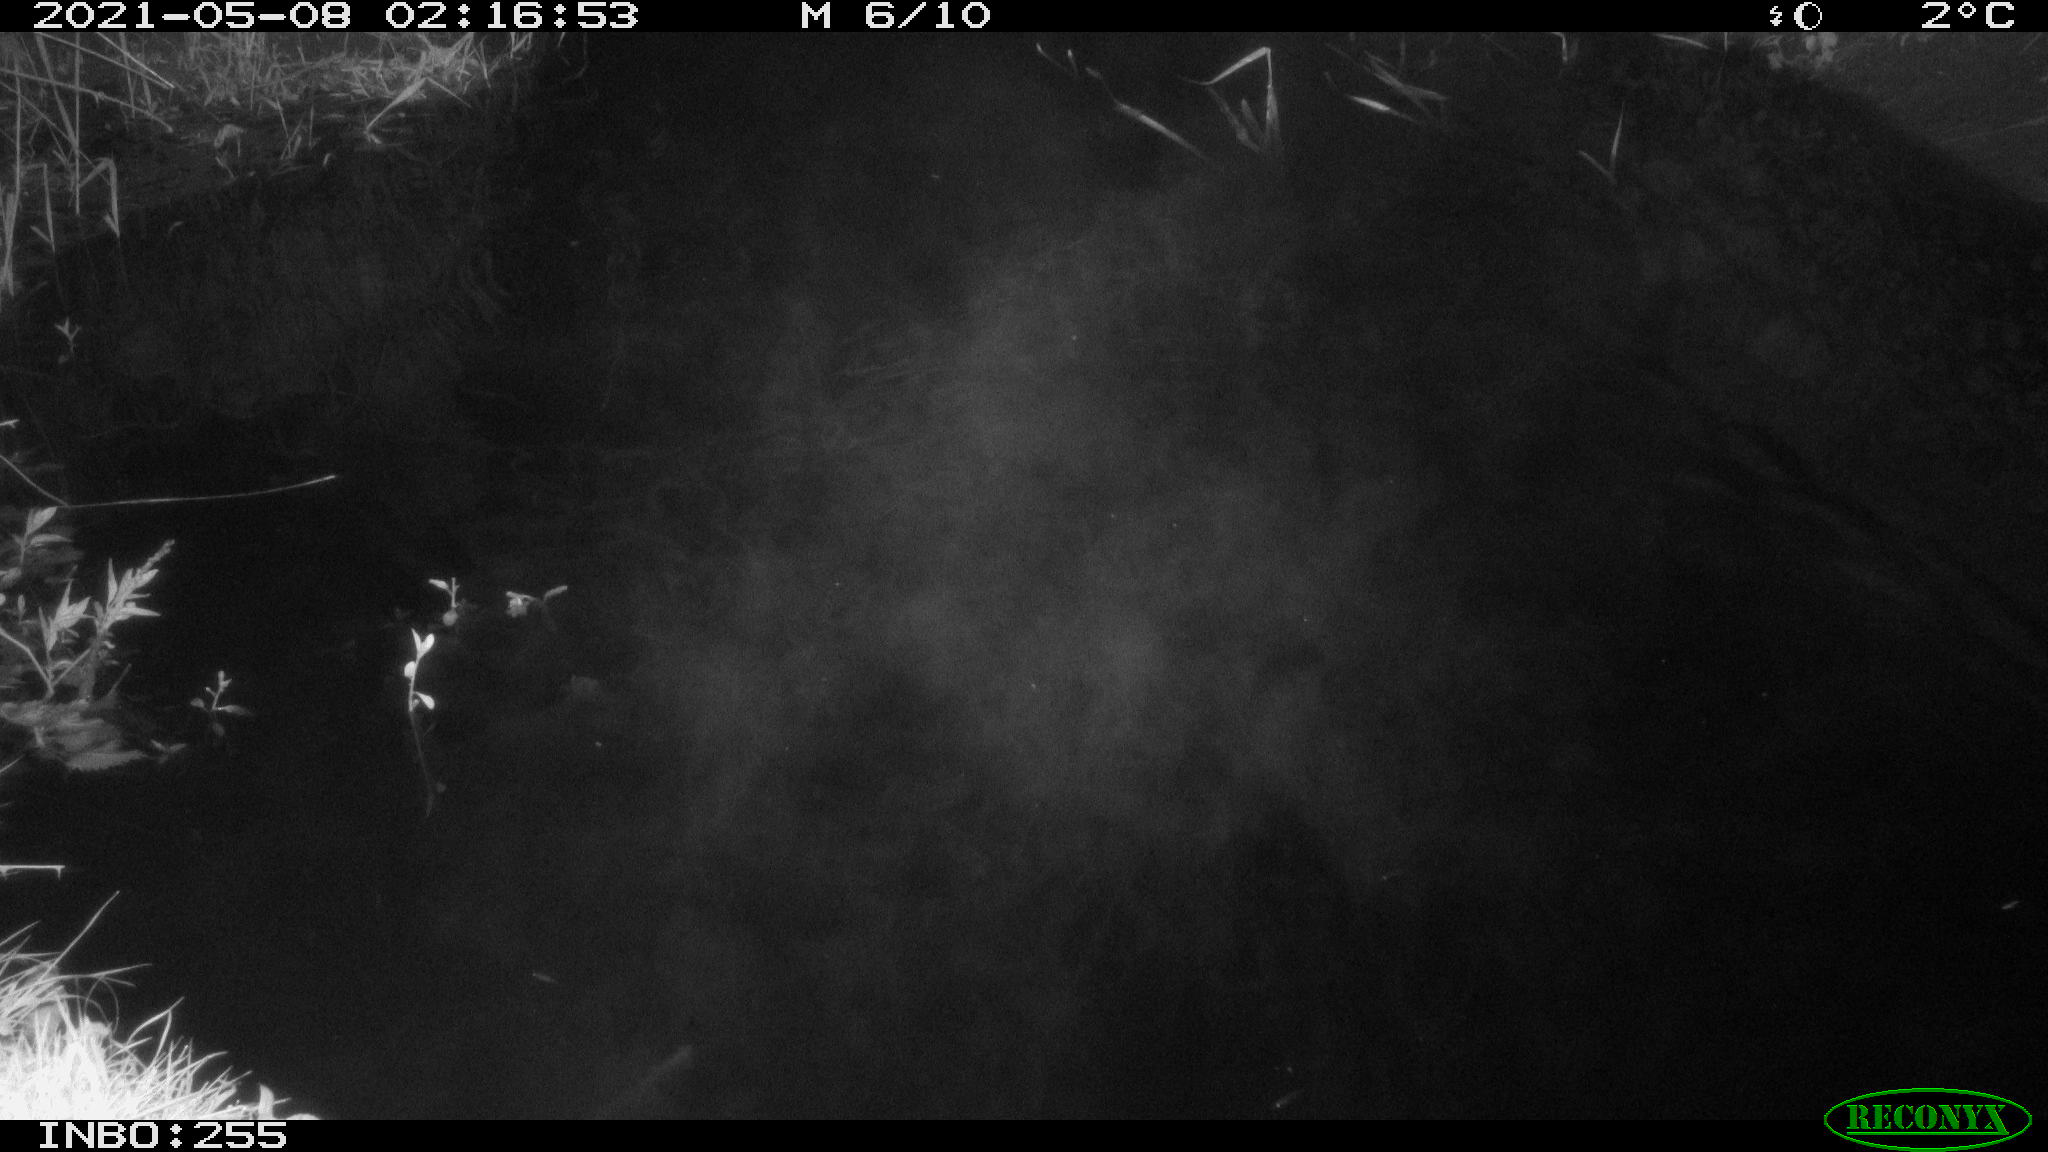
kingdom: Animalia
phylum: Chordata
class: Aves
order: Anseriformes
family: Anatidae
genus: Anas
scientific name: Anas platyrhynchos
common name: Mallard
